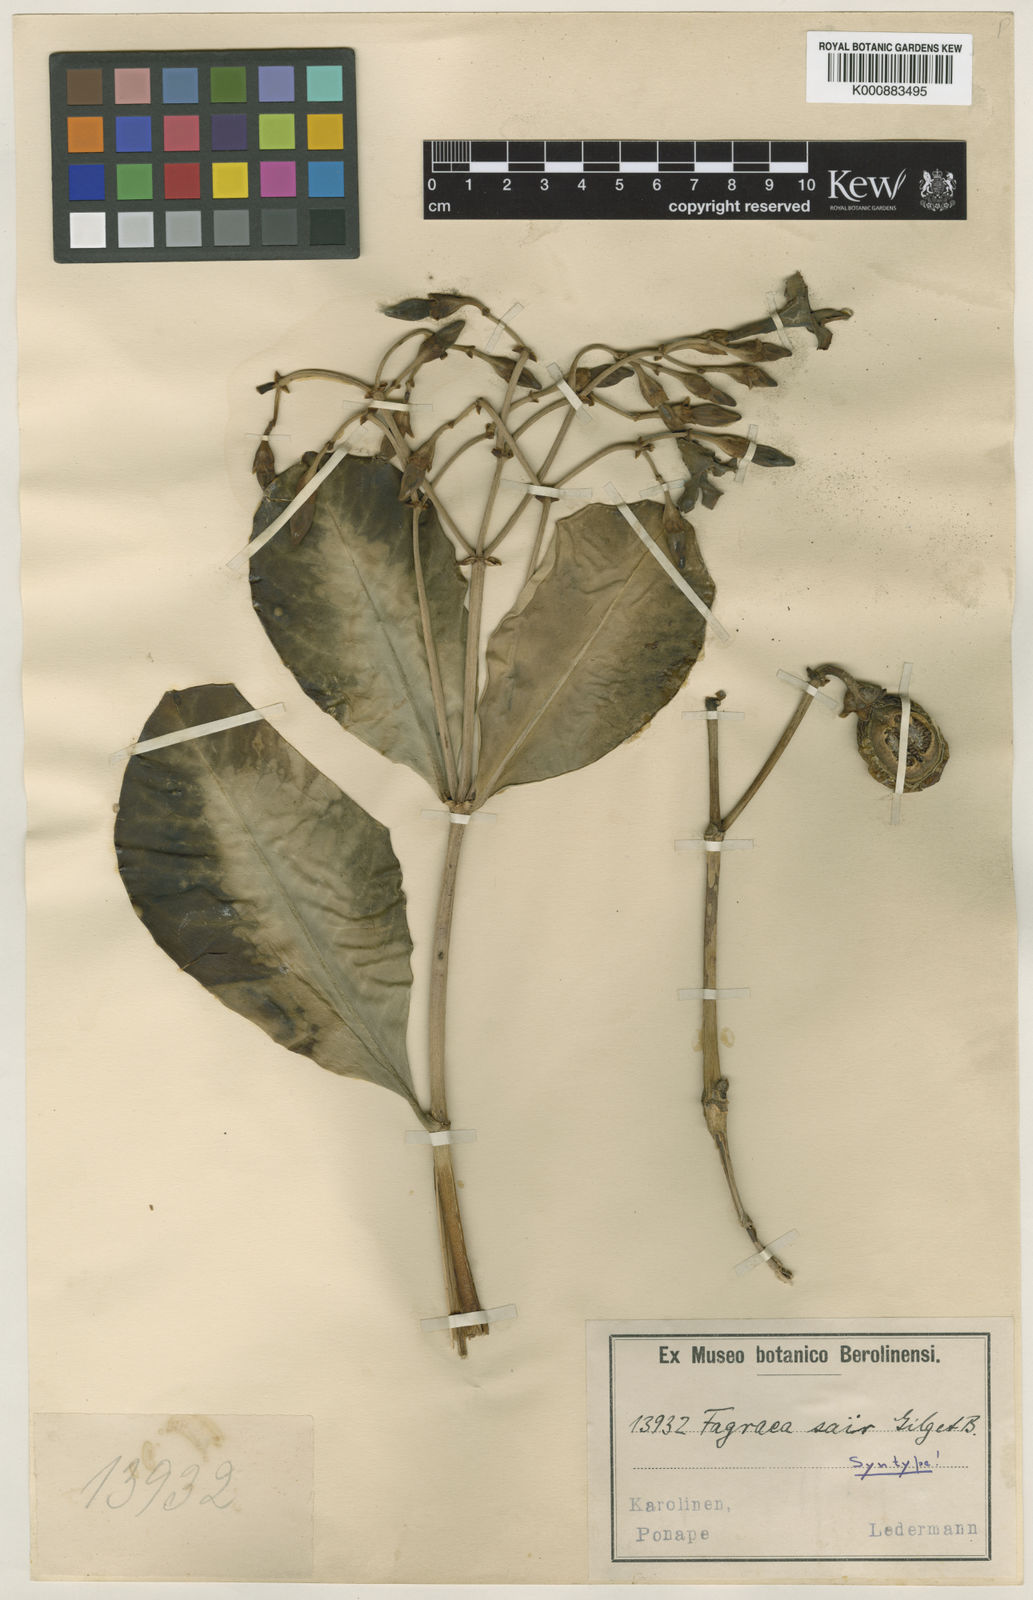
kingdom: Plantae
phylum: Tracheophyta
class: Magnoliopsida
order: Gentianales
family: Gentianaceae
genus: Fagraea
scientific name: Fagraea berteroana
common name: Cape jitta
